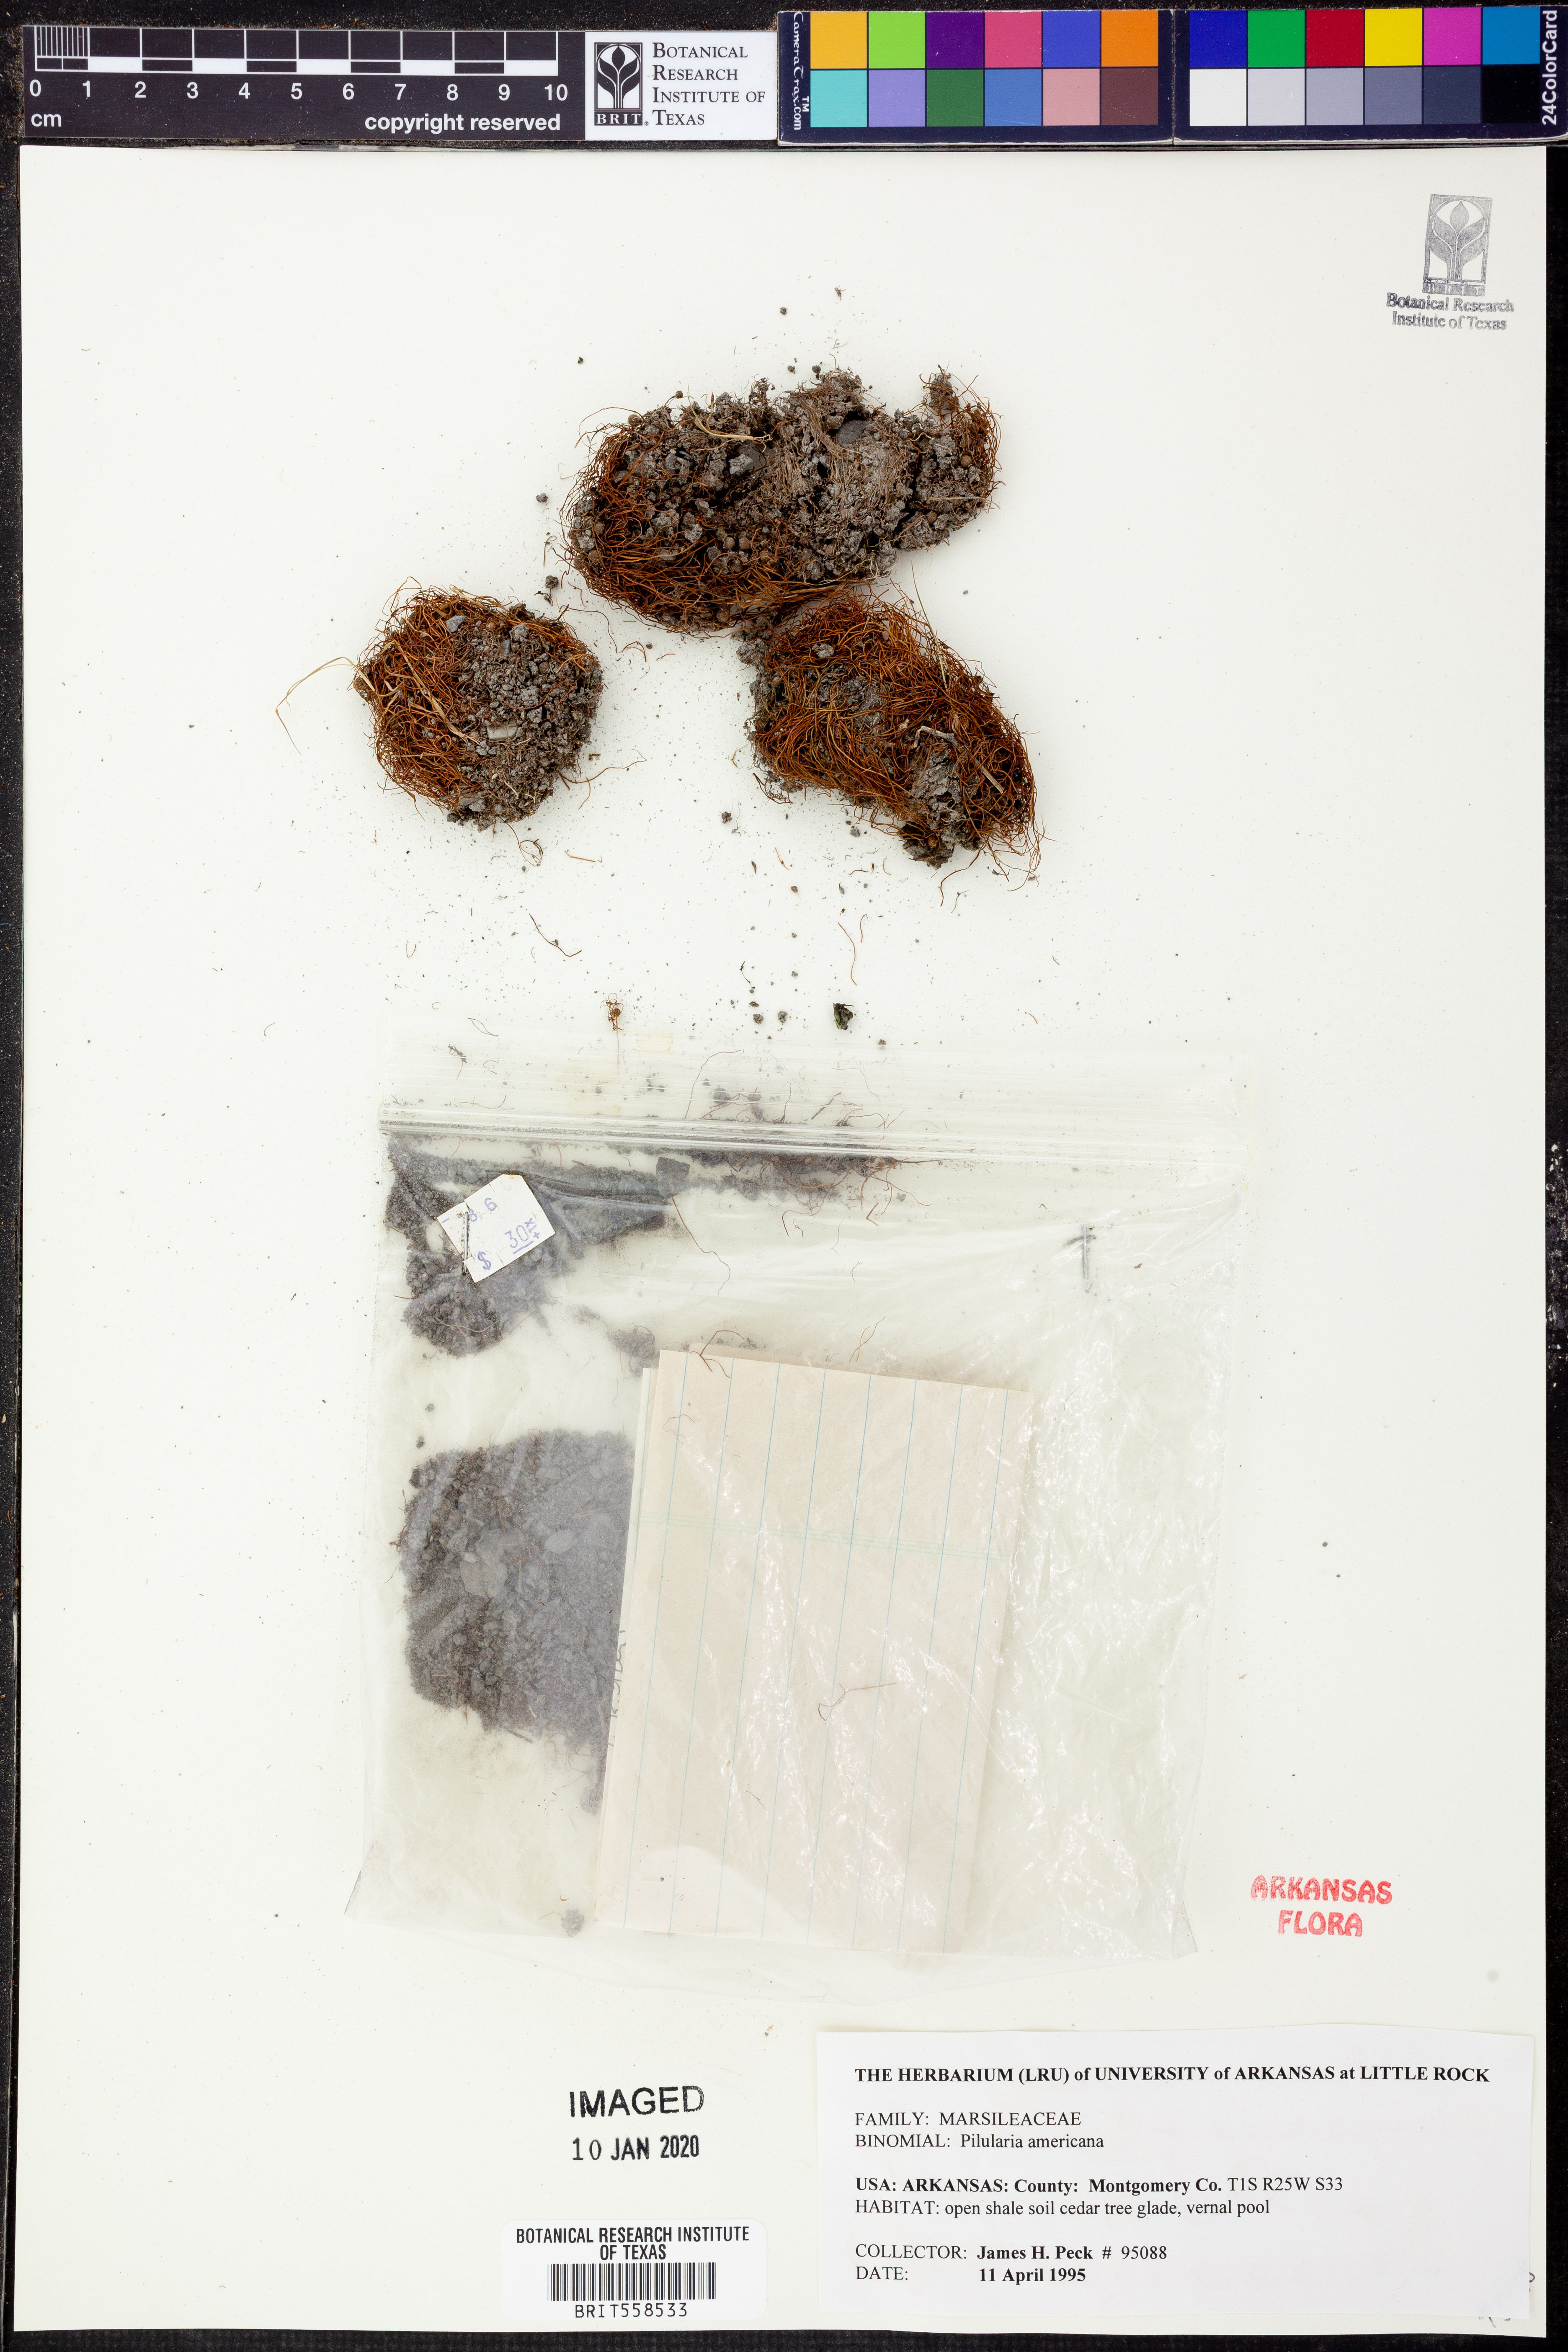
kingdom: Plantae
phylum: Tracheophyta
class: Polypodiopsida
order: Salviniales
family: Marsileaceae
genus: Pilularia
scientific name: Pilularia americana
